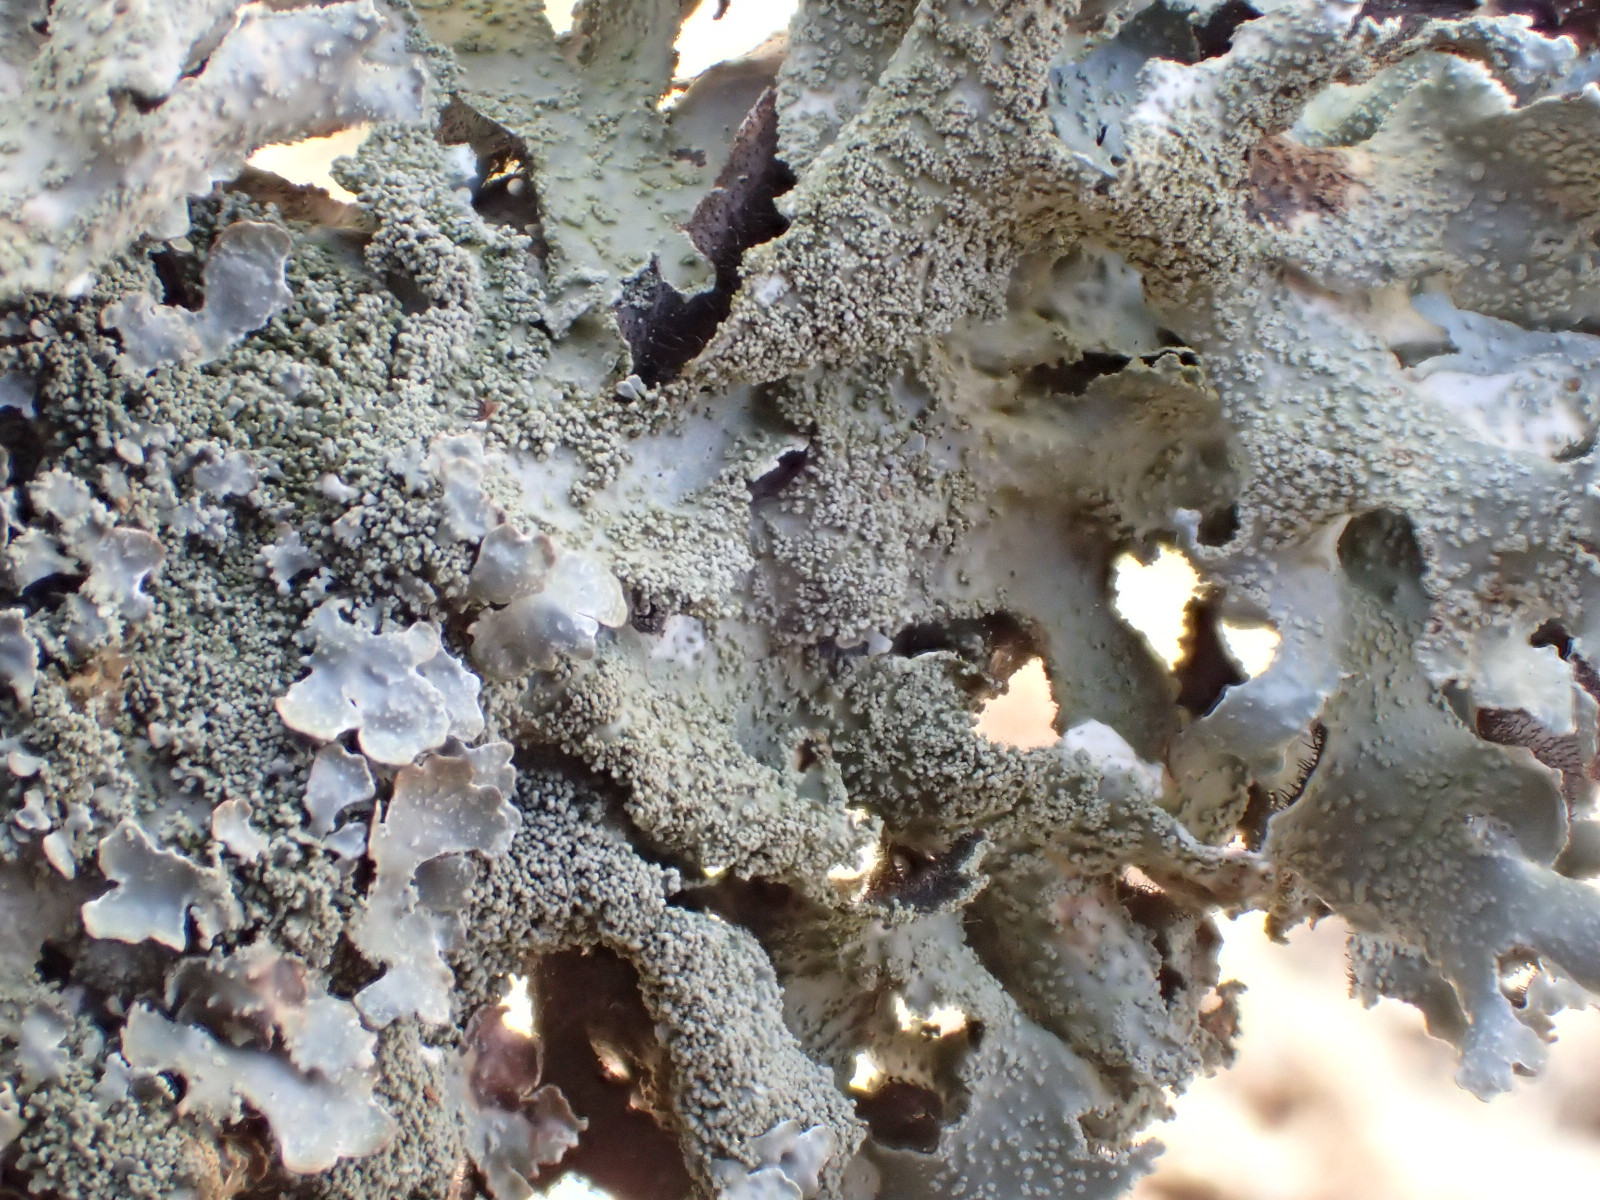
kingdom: Fungi
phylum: Ascomycota
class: Lecanoromycetes
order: Lecanorales
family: Parmeliaceae
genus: Parmelia
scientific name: Parmelia submontana
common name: langlobet skållav
